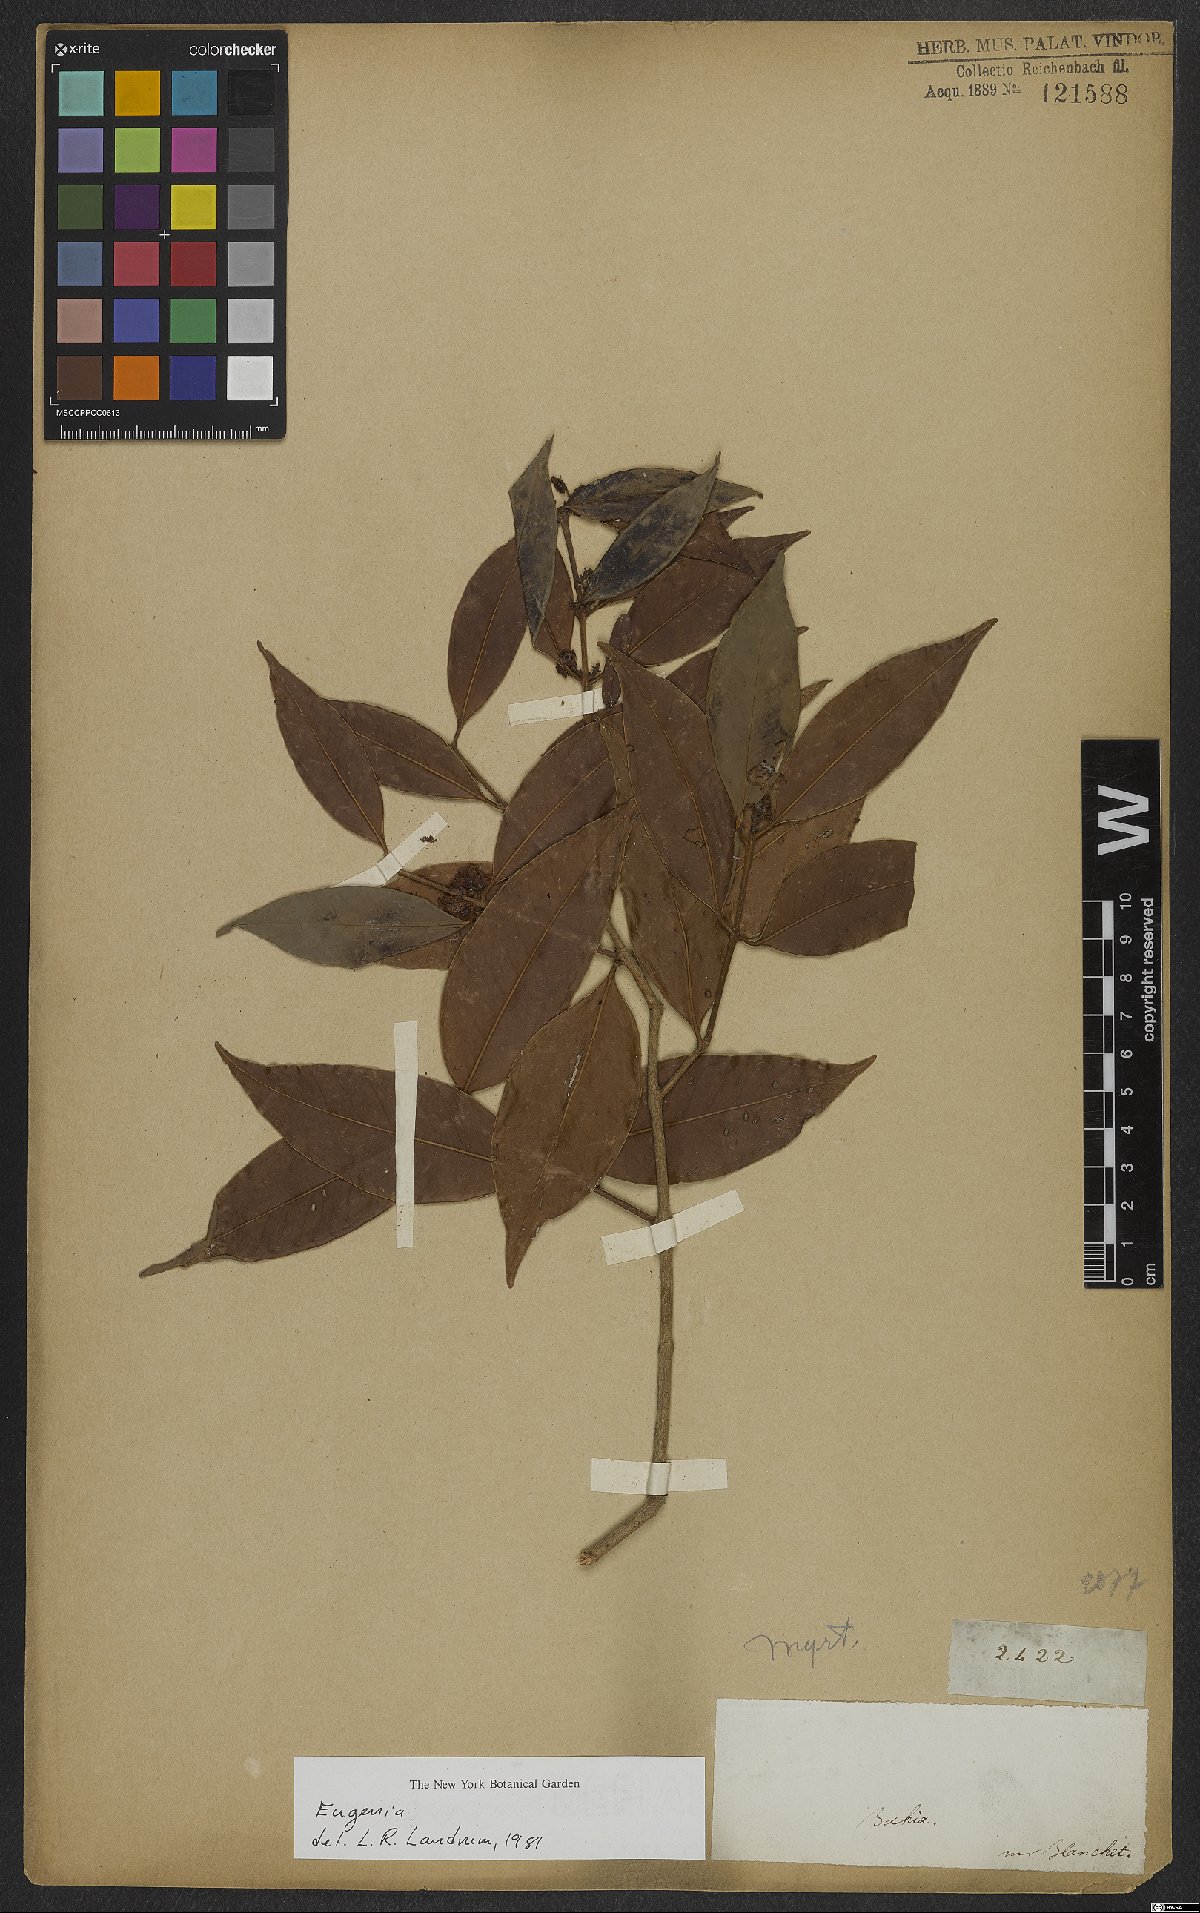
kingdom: Plantae
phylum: Tracheophyta
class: Magnoliopsida
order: Myrtales
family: Myrtaceae
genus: Eugenia
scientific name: Eugenia
